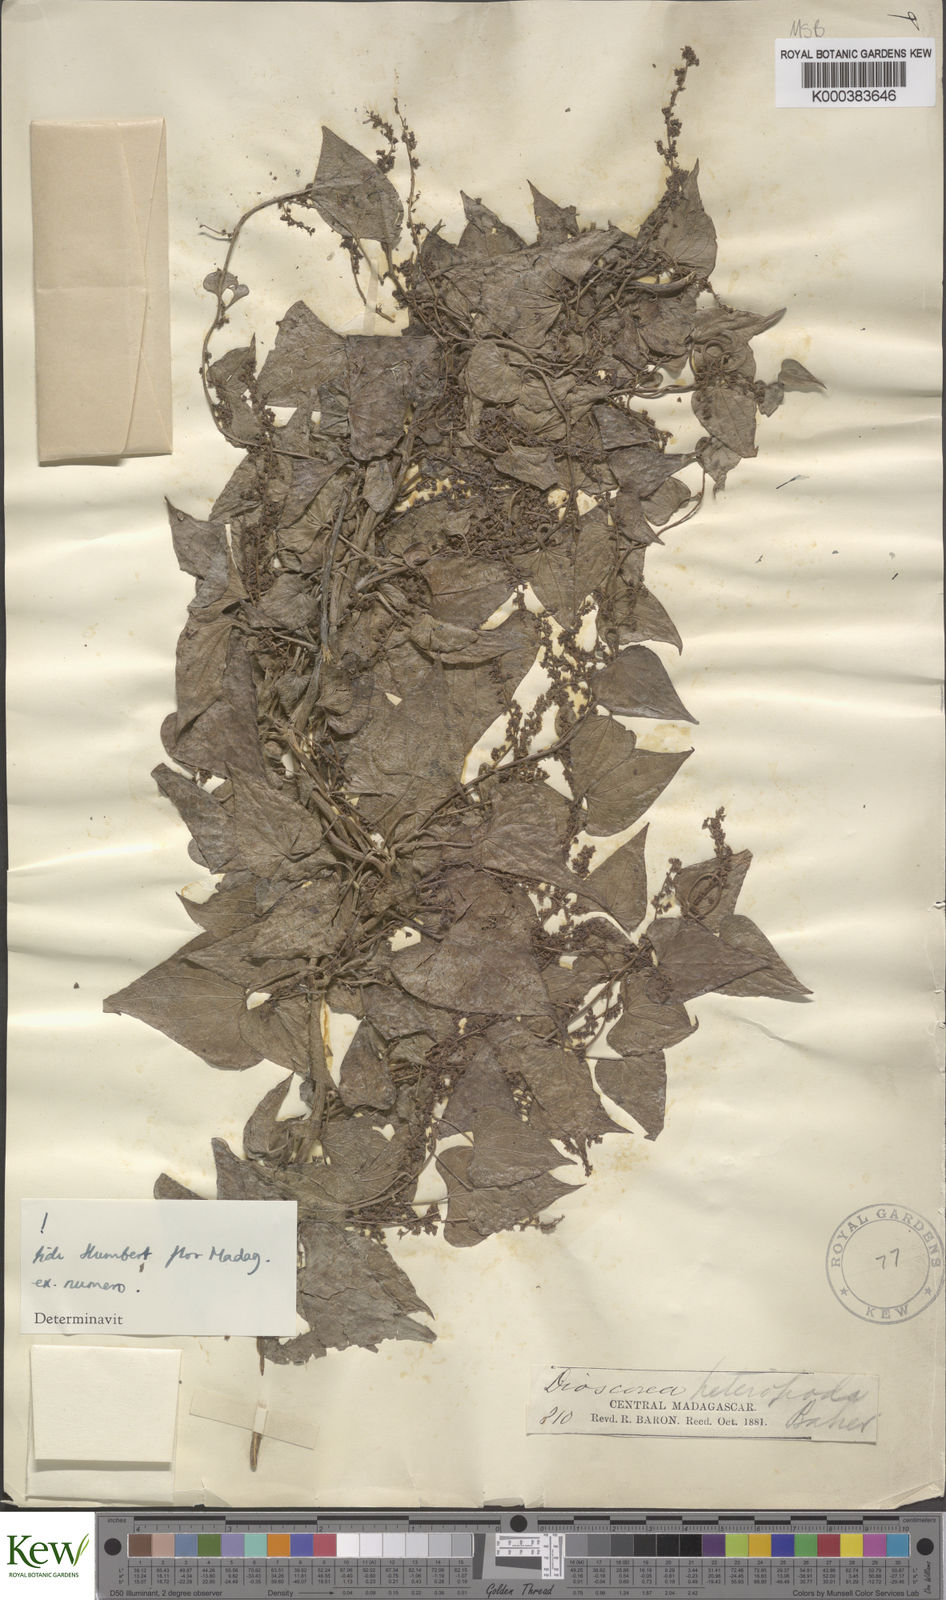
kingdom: Plantae
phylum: Tracheophyta
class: Liliopsida
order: Dioscoreales
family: Dioscoreaceae
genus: Dioscorea
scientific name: Dioscorea heteropoda
